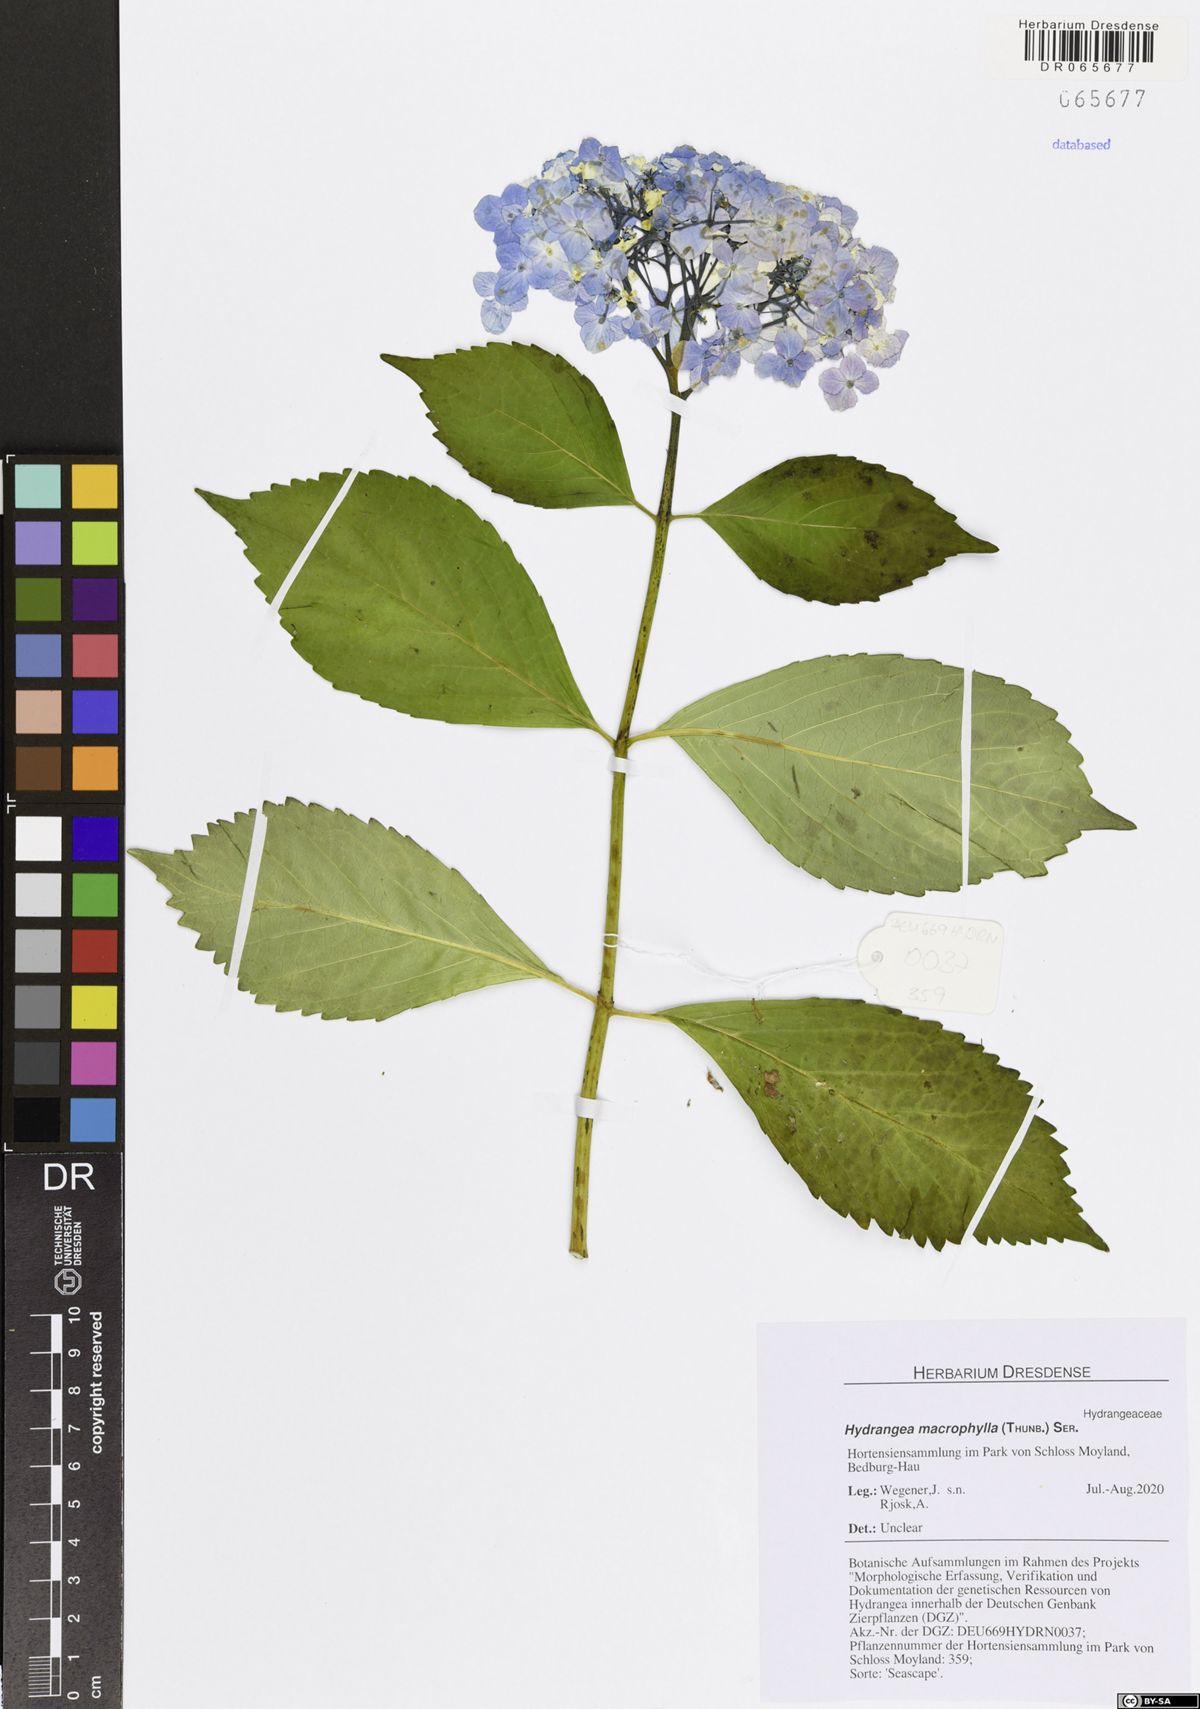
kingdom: Plantae
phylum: Tracheophyta
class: Magnoliopsida
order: Cornales
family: Hydrangeaceae
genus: Hydrangea
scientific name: Hydrangea macrophylla
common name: Hydrangea
